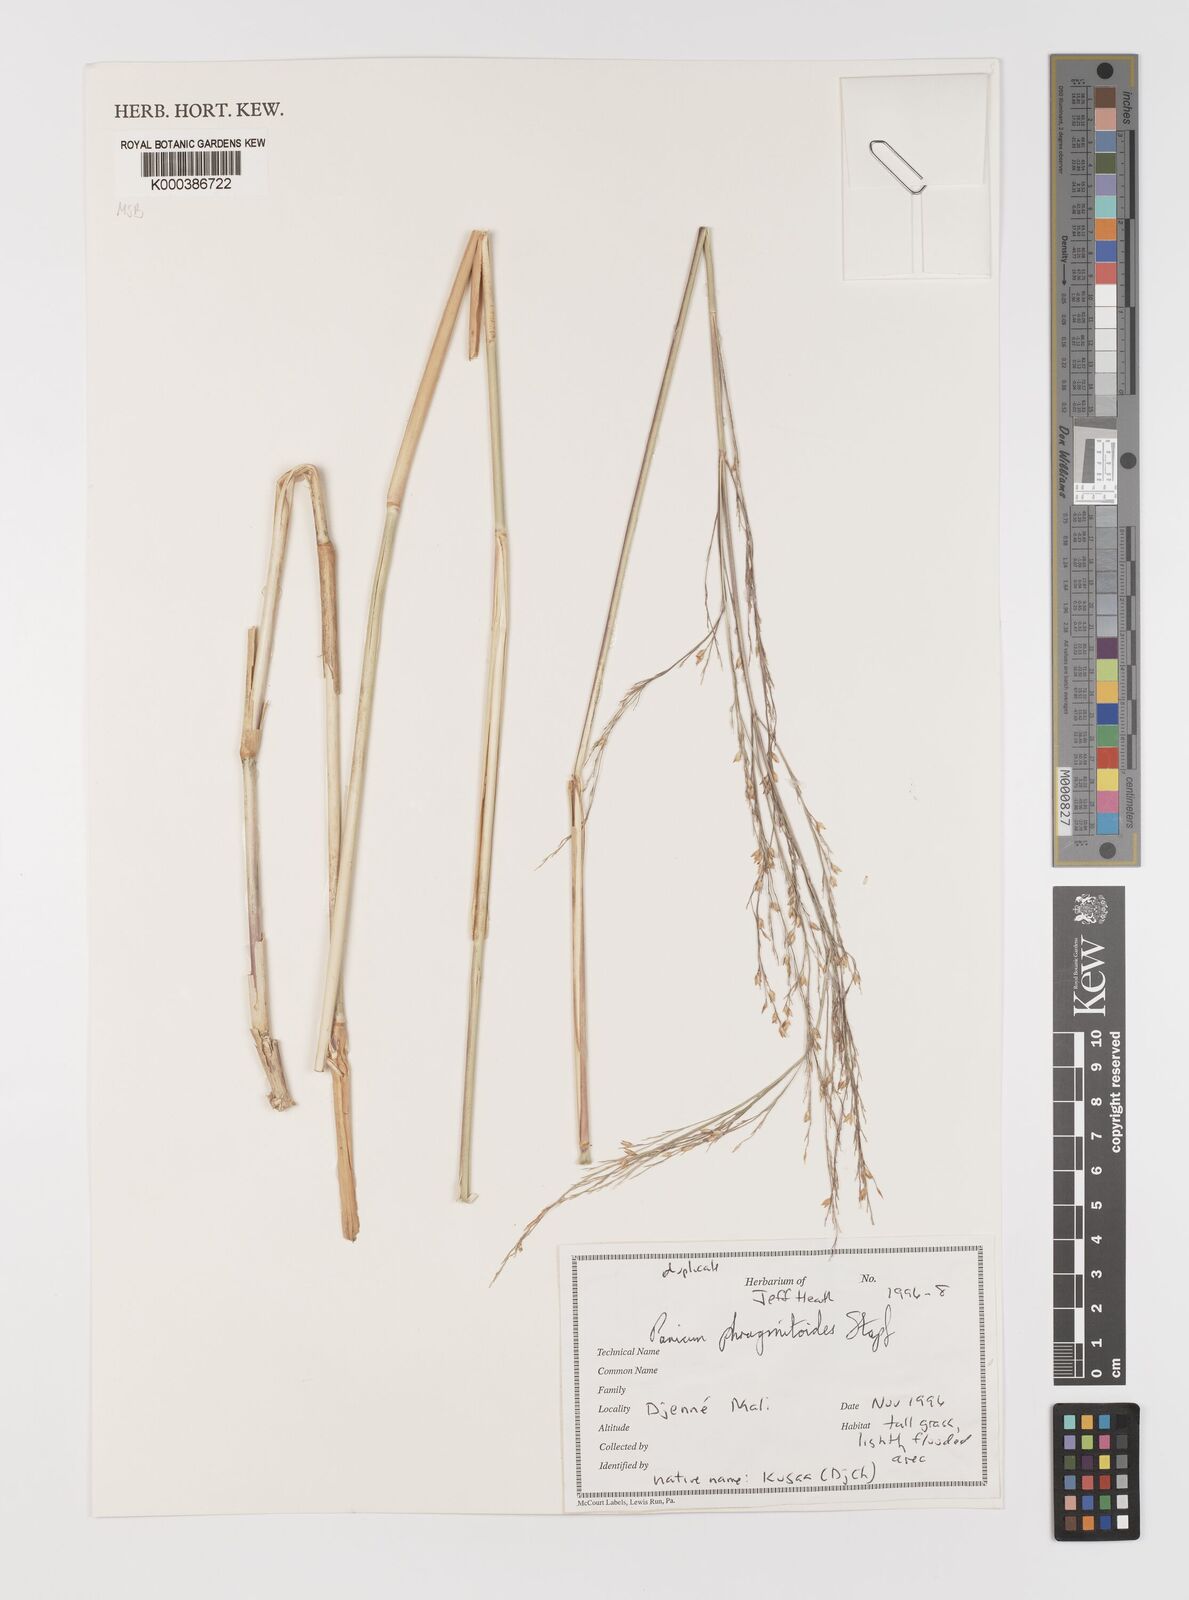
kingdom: Plantae
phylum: Tracheophyta
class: Liliopsida
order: Poales
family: Poaceae
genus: Panicum
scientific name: Panicum phragmitoides
